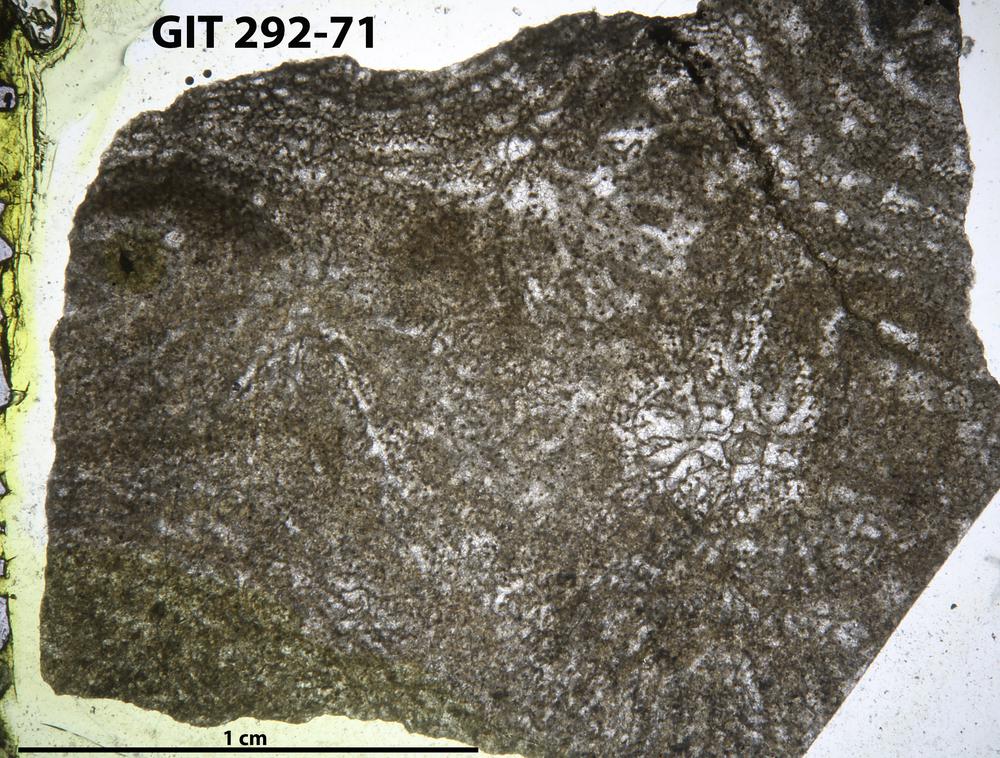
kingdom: Animalia
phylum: Porifera
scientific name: Porifera
